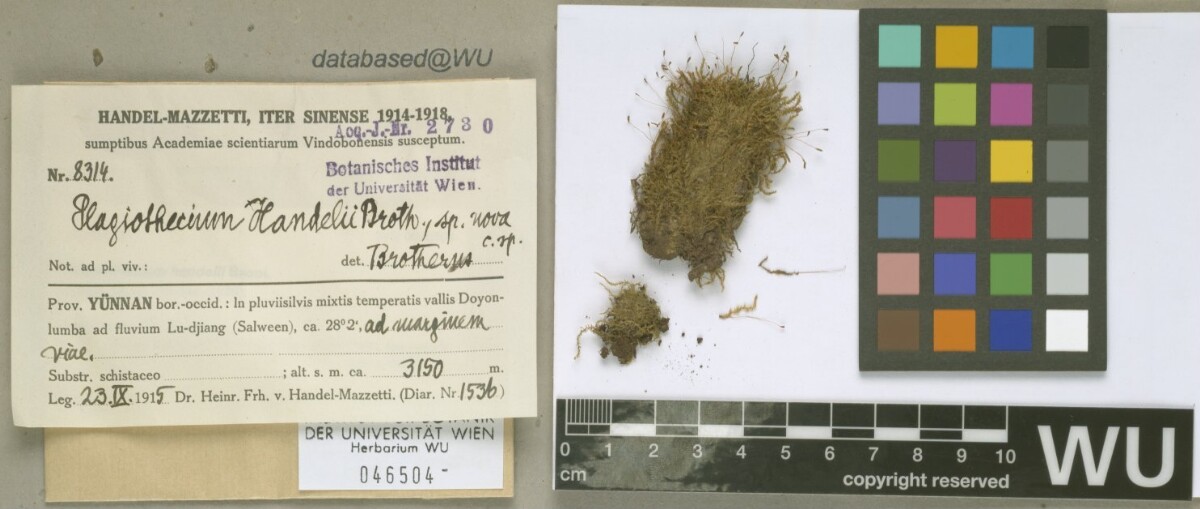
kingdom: Plantae
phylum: Bryophyta
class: Bryopsida
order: Hypnales
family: Plagiotheciaceae
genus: Ortholimnobium
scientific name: Ortholimnobium handelii
